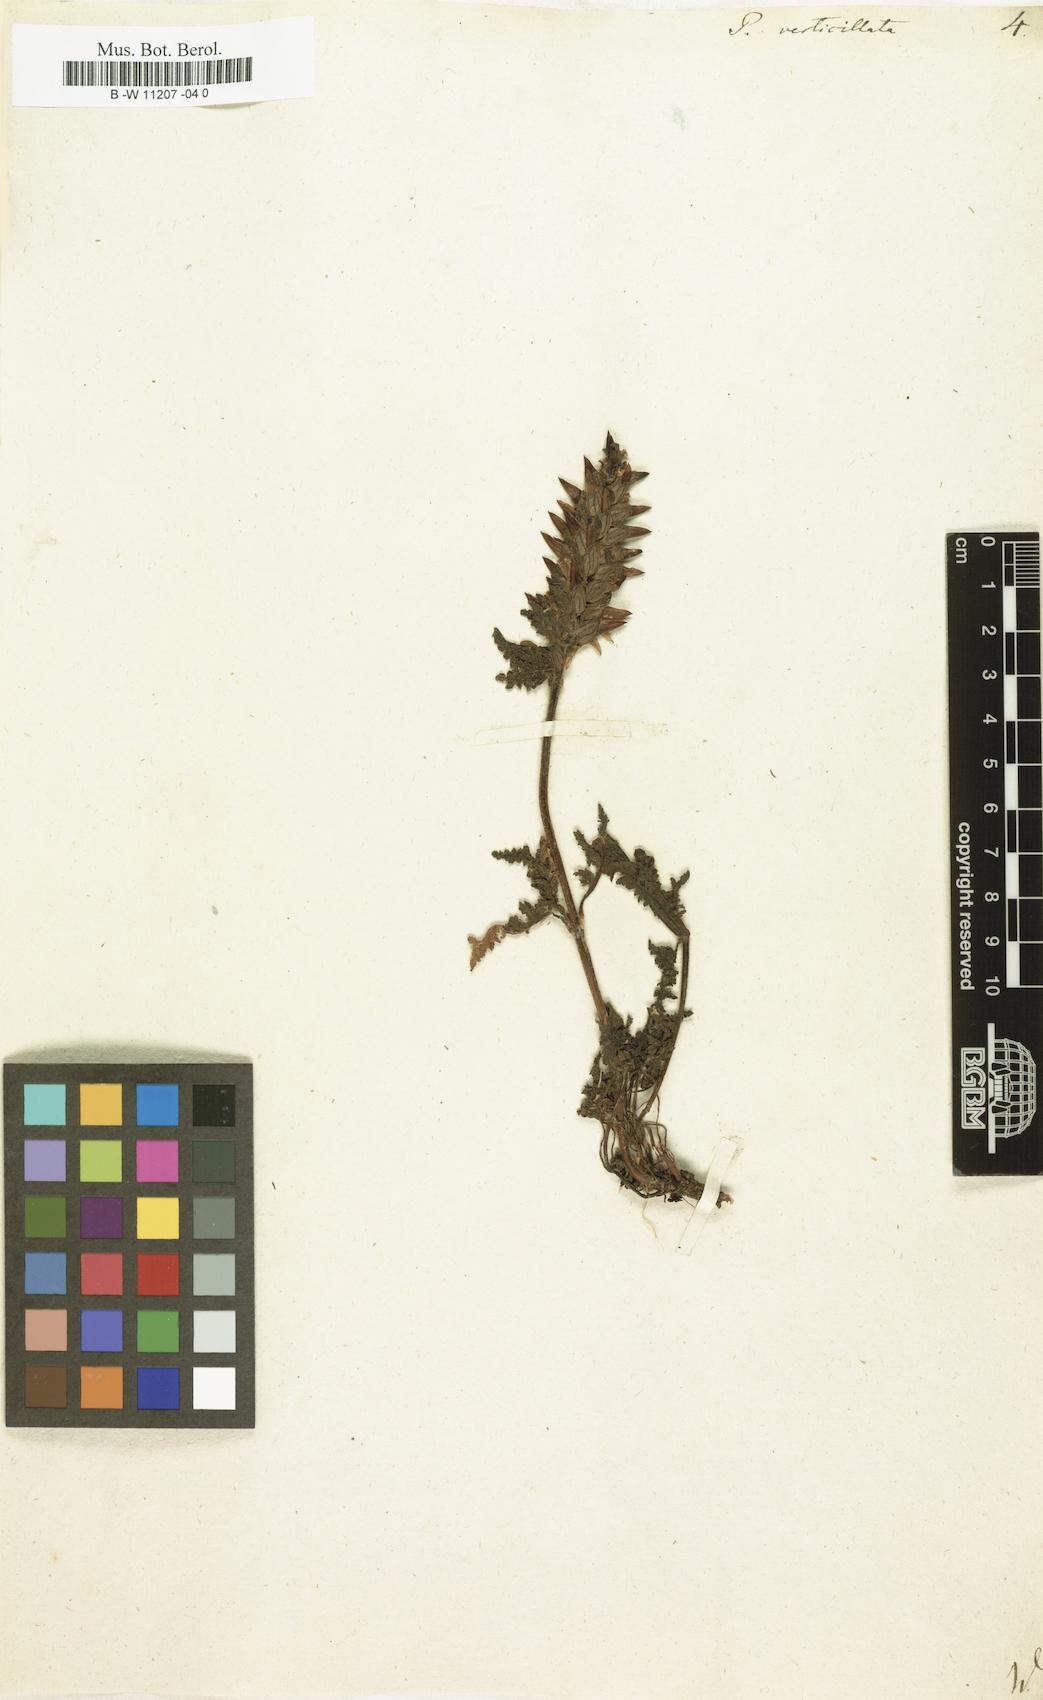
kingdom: Plantae
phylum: Tracheophyta
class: Magnoliopsida
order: Lamiales
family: Orobanchaceae
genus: Pedicularis
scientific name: Pedicularis verticillata
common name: Whorled lousewort
